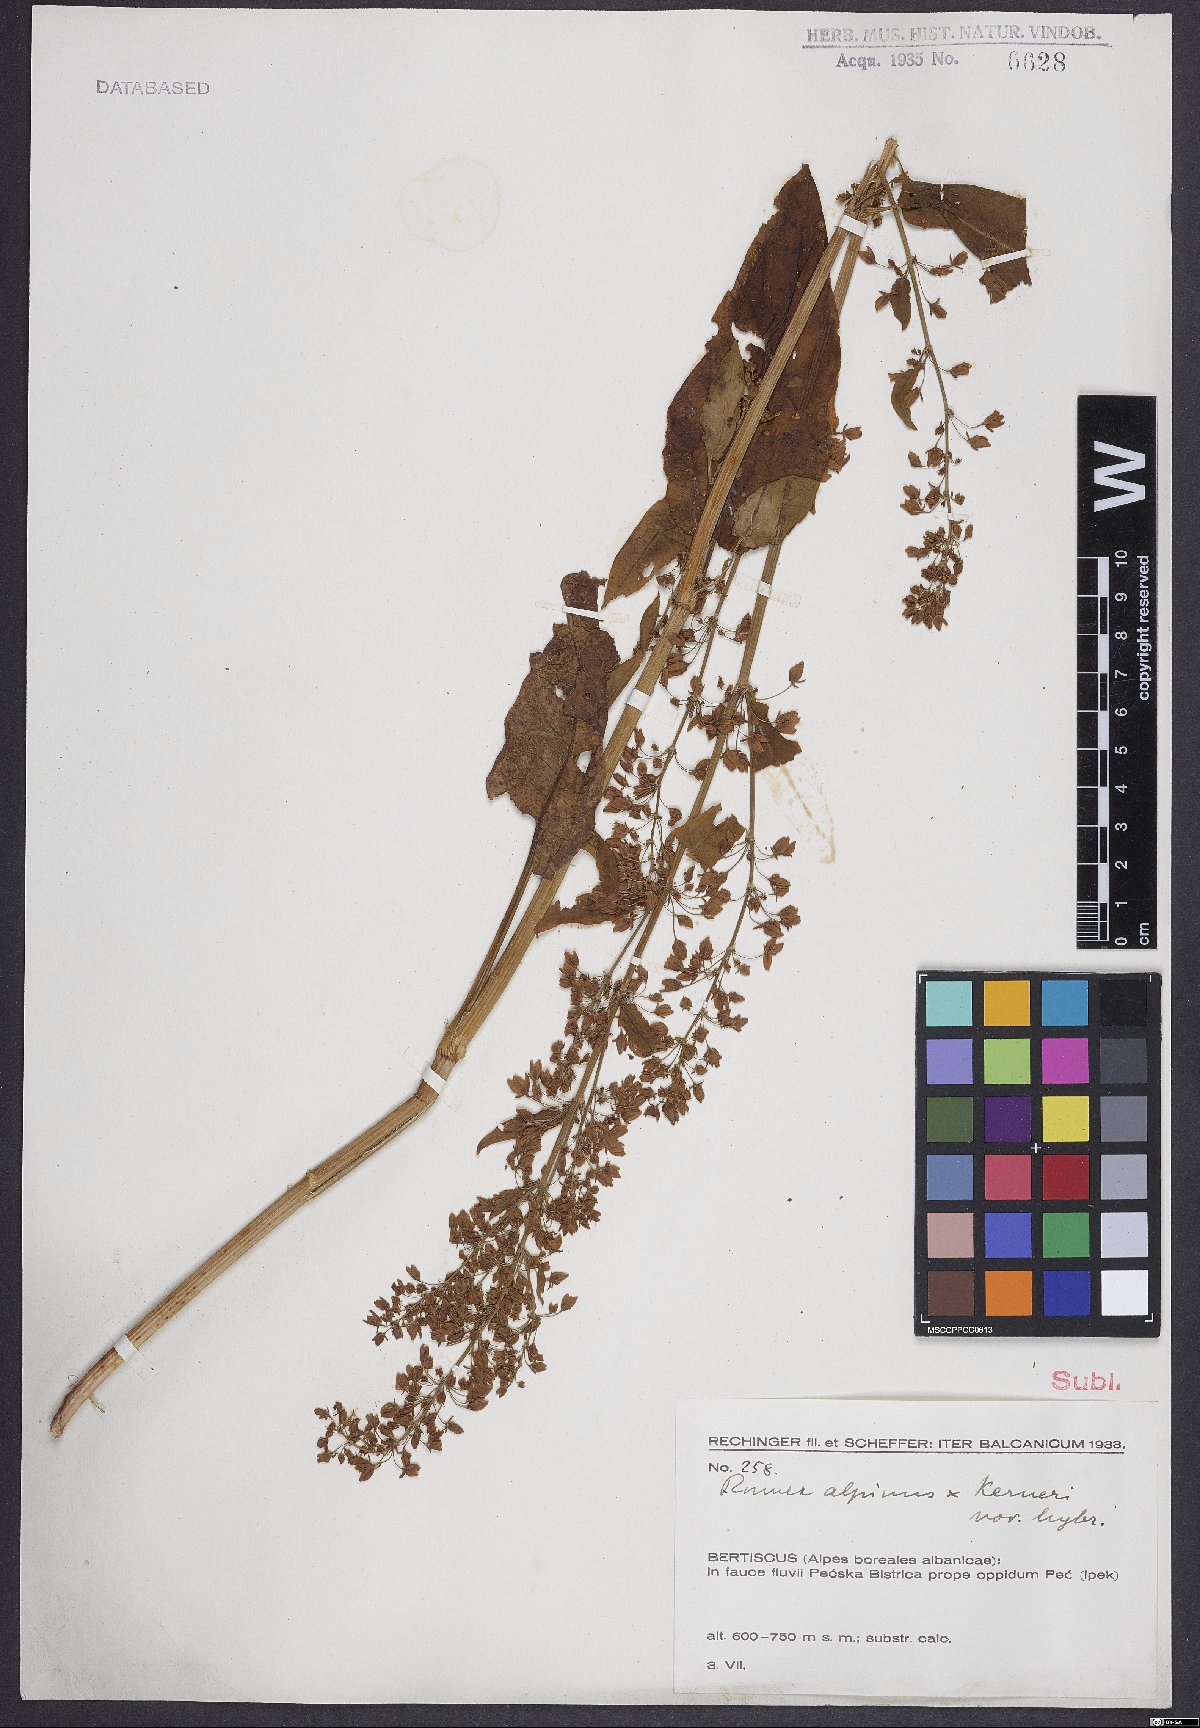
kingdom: Plantae
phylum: Tracheophyta
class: Magnoliopsida
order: Caryophyllales
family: Polygonaceae
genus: Rumex
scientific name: Rumex alpinus
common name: Alpine dock
